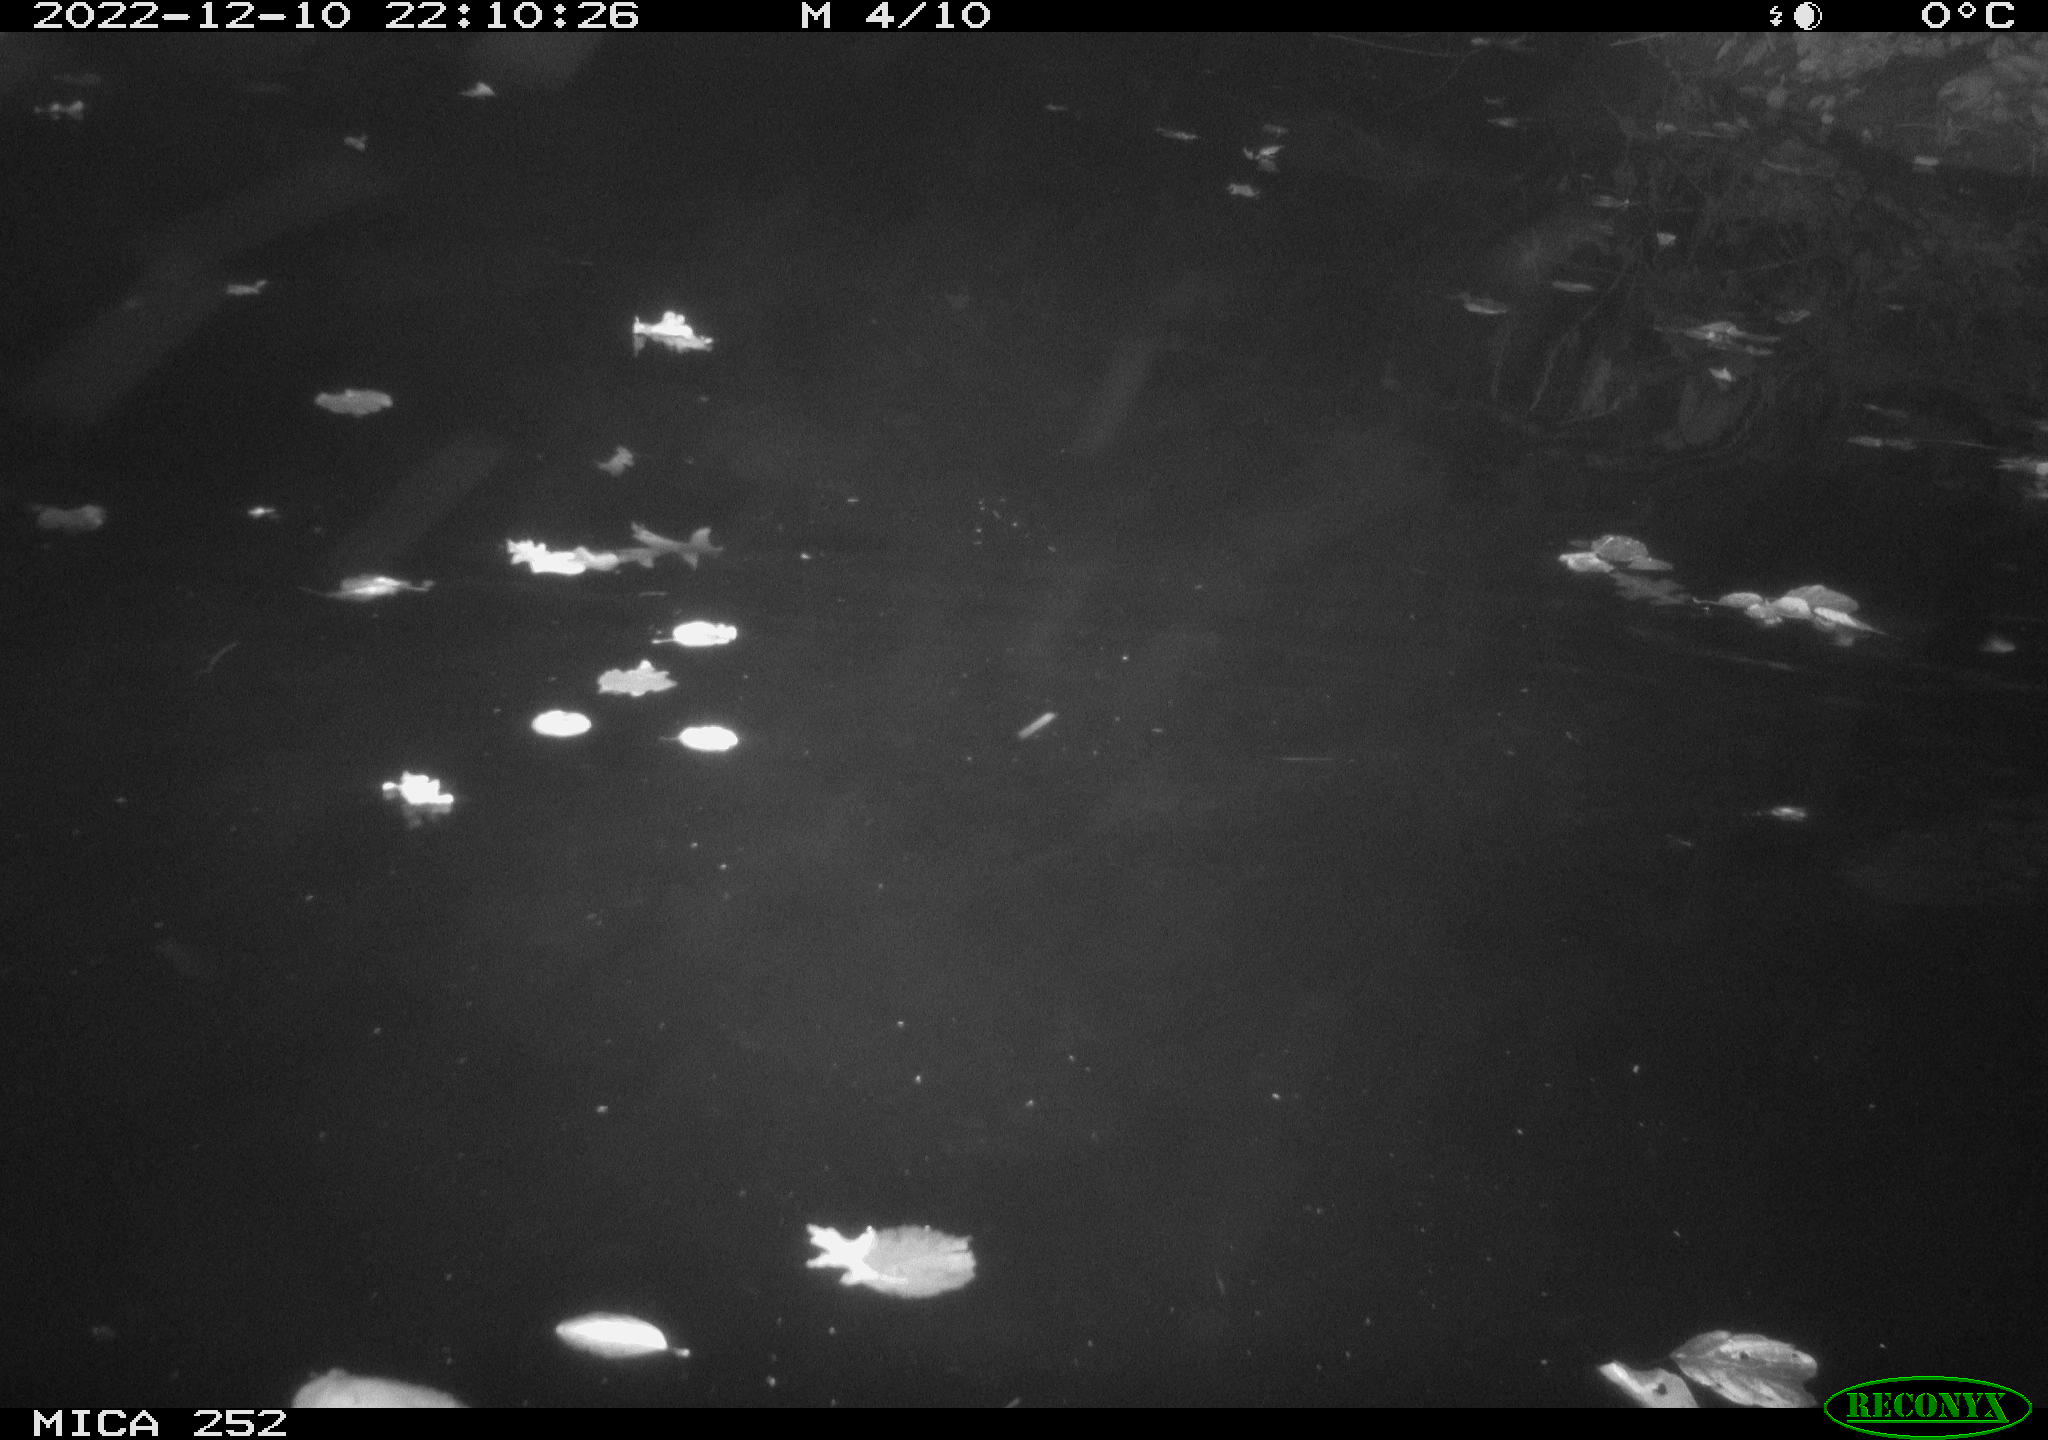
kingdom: Animalia
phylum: Chordata
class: Mammalia
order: Rodentia
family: Castoridae
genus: Castor
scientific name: Castor fiber
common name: Eurasian beaver
